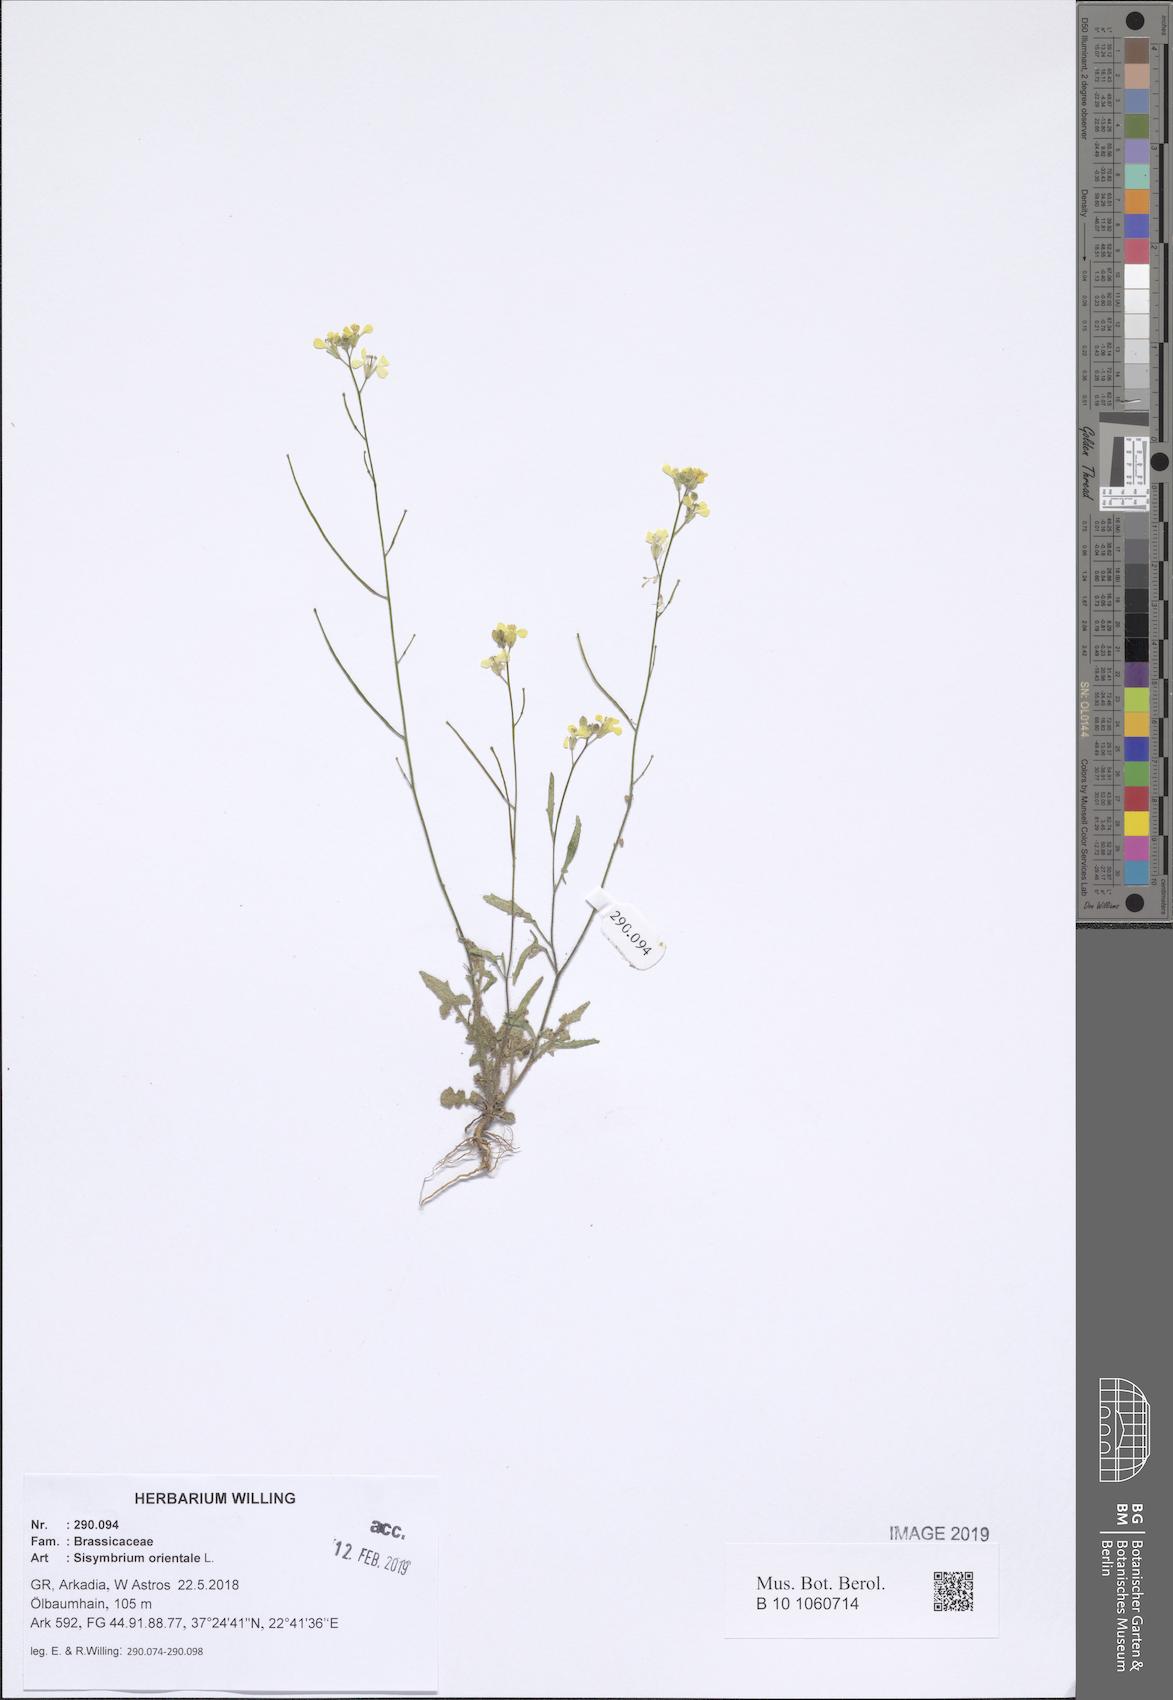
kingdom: Plantae
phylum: Tracheophyta
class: Magnoliopsida
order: Brassicales
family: Brassicaceae
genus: Sisymbrium
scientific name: Sisymbrium orientale
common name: Eastern rocket
